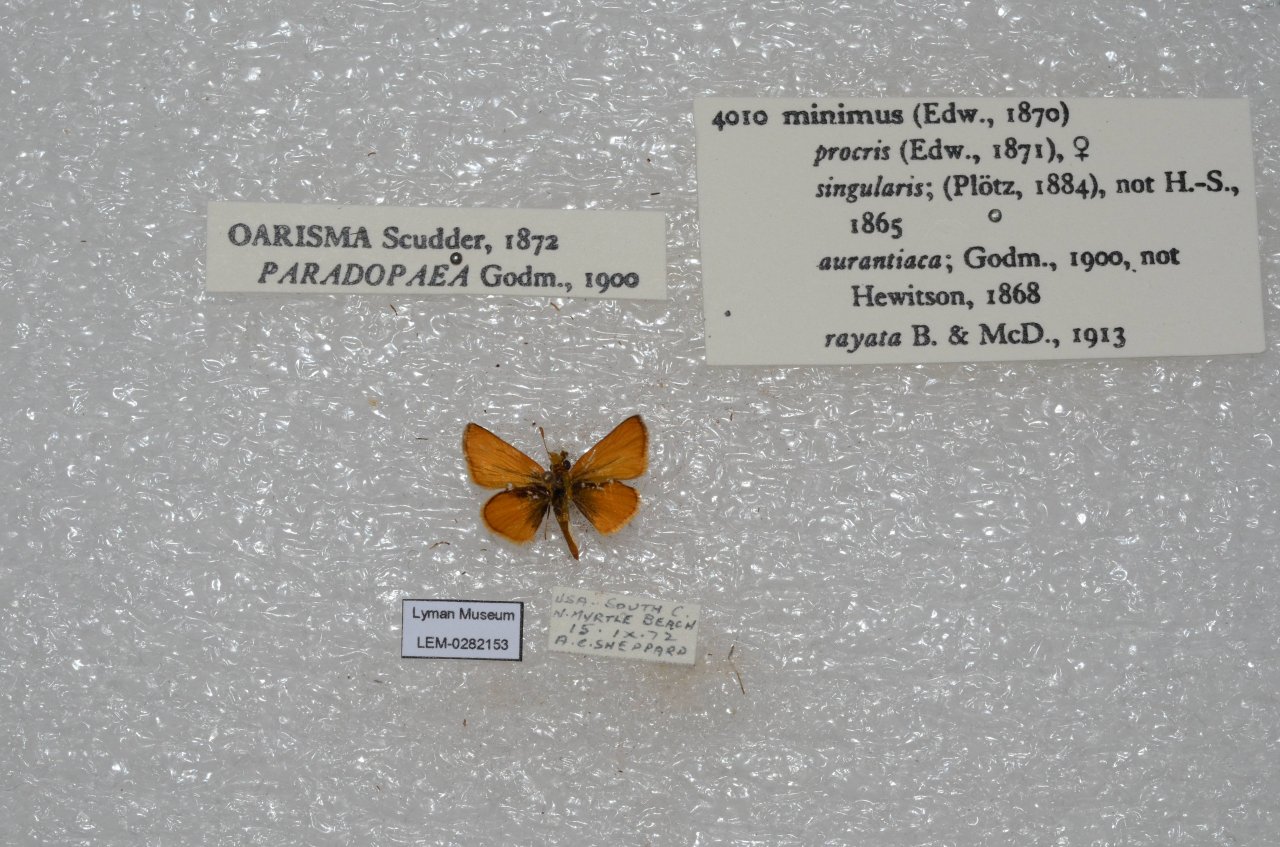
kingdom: Animalia
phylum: Arthropoda
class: Insecta
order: Lepidoptera
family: Hesperiidae
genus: Copaeodes
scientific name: Copaeodes minima
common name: Southern Skipperling
